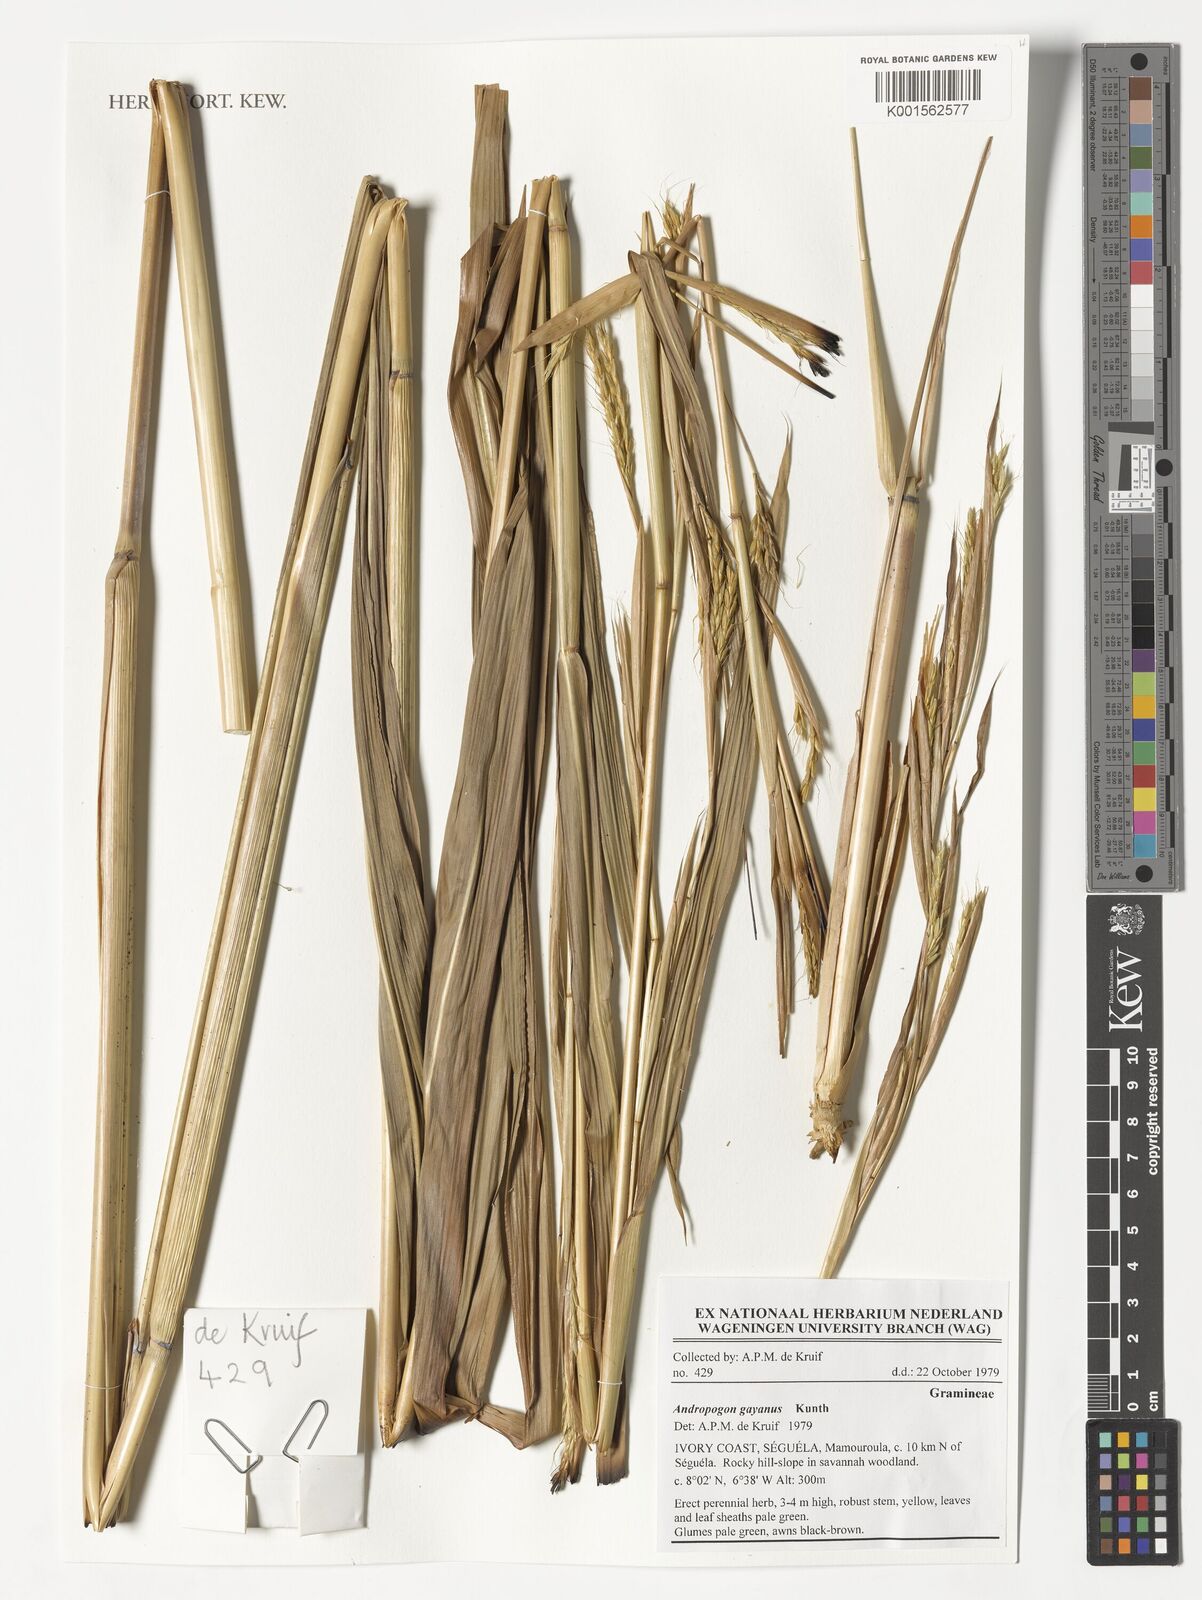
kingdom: Plantae
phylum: Tracheophyta
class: Liliopsida
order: Poales
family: Poaceae
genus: Andropogon
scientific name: Andropogon gayanus
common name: Tambuki grass
